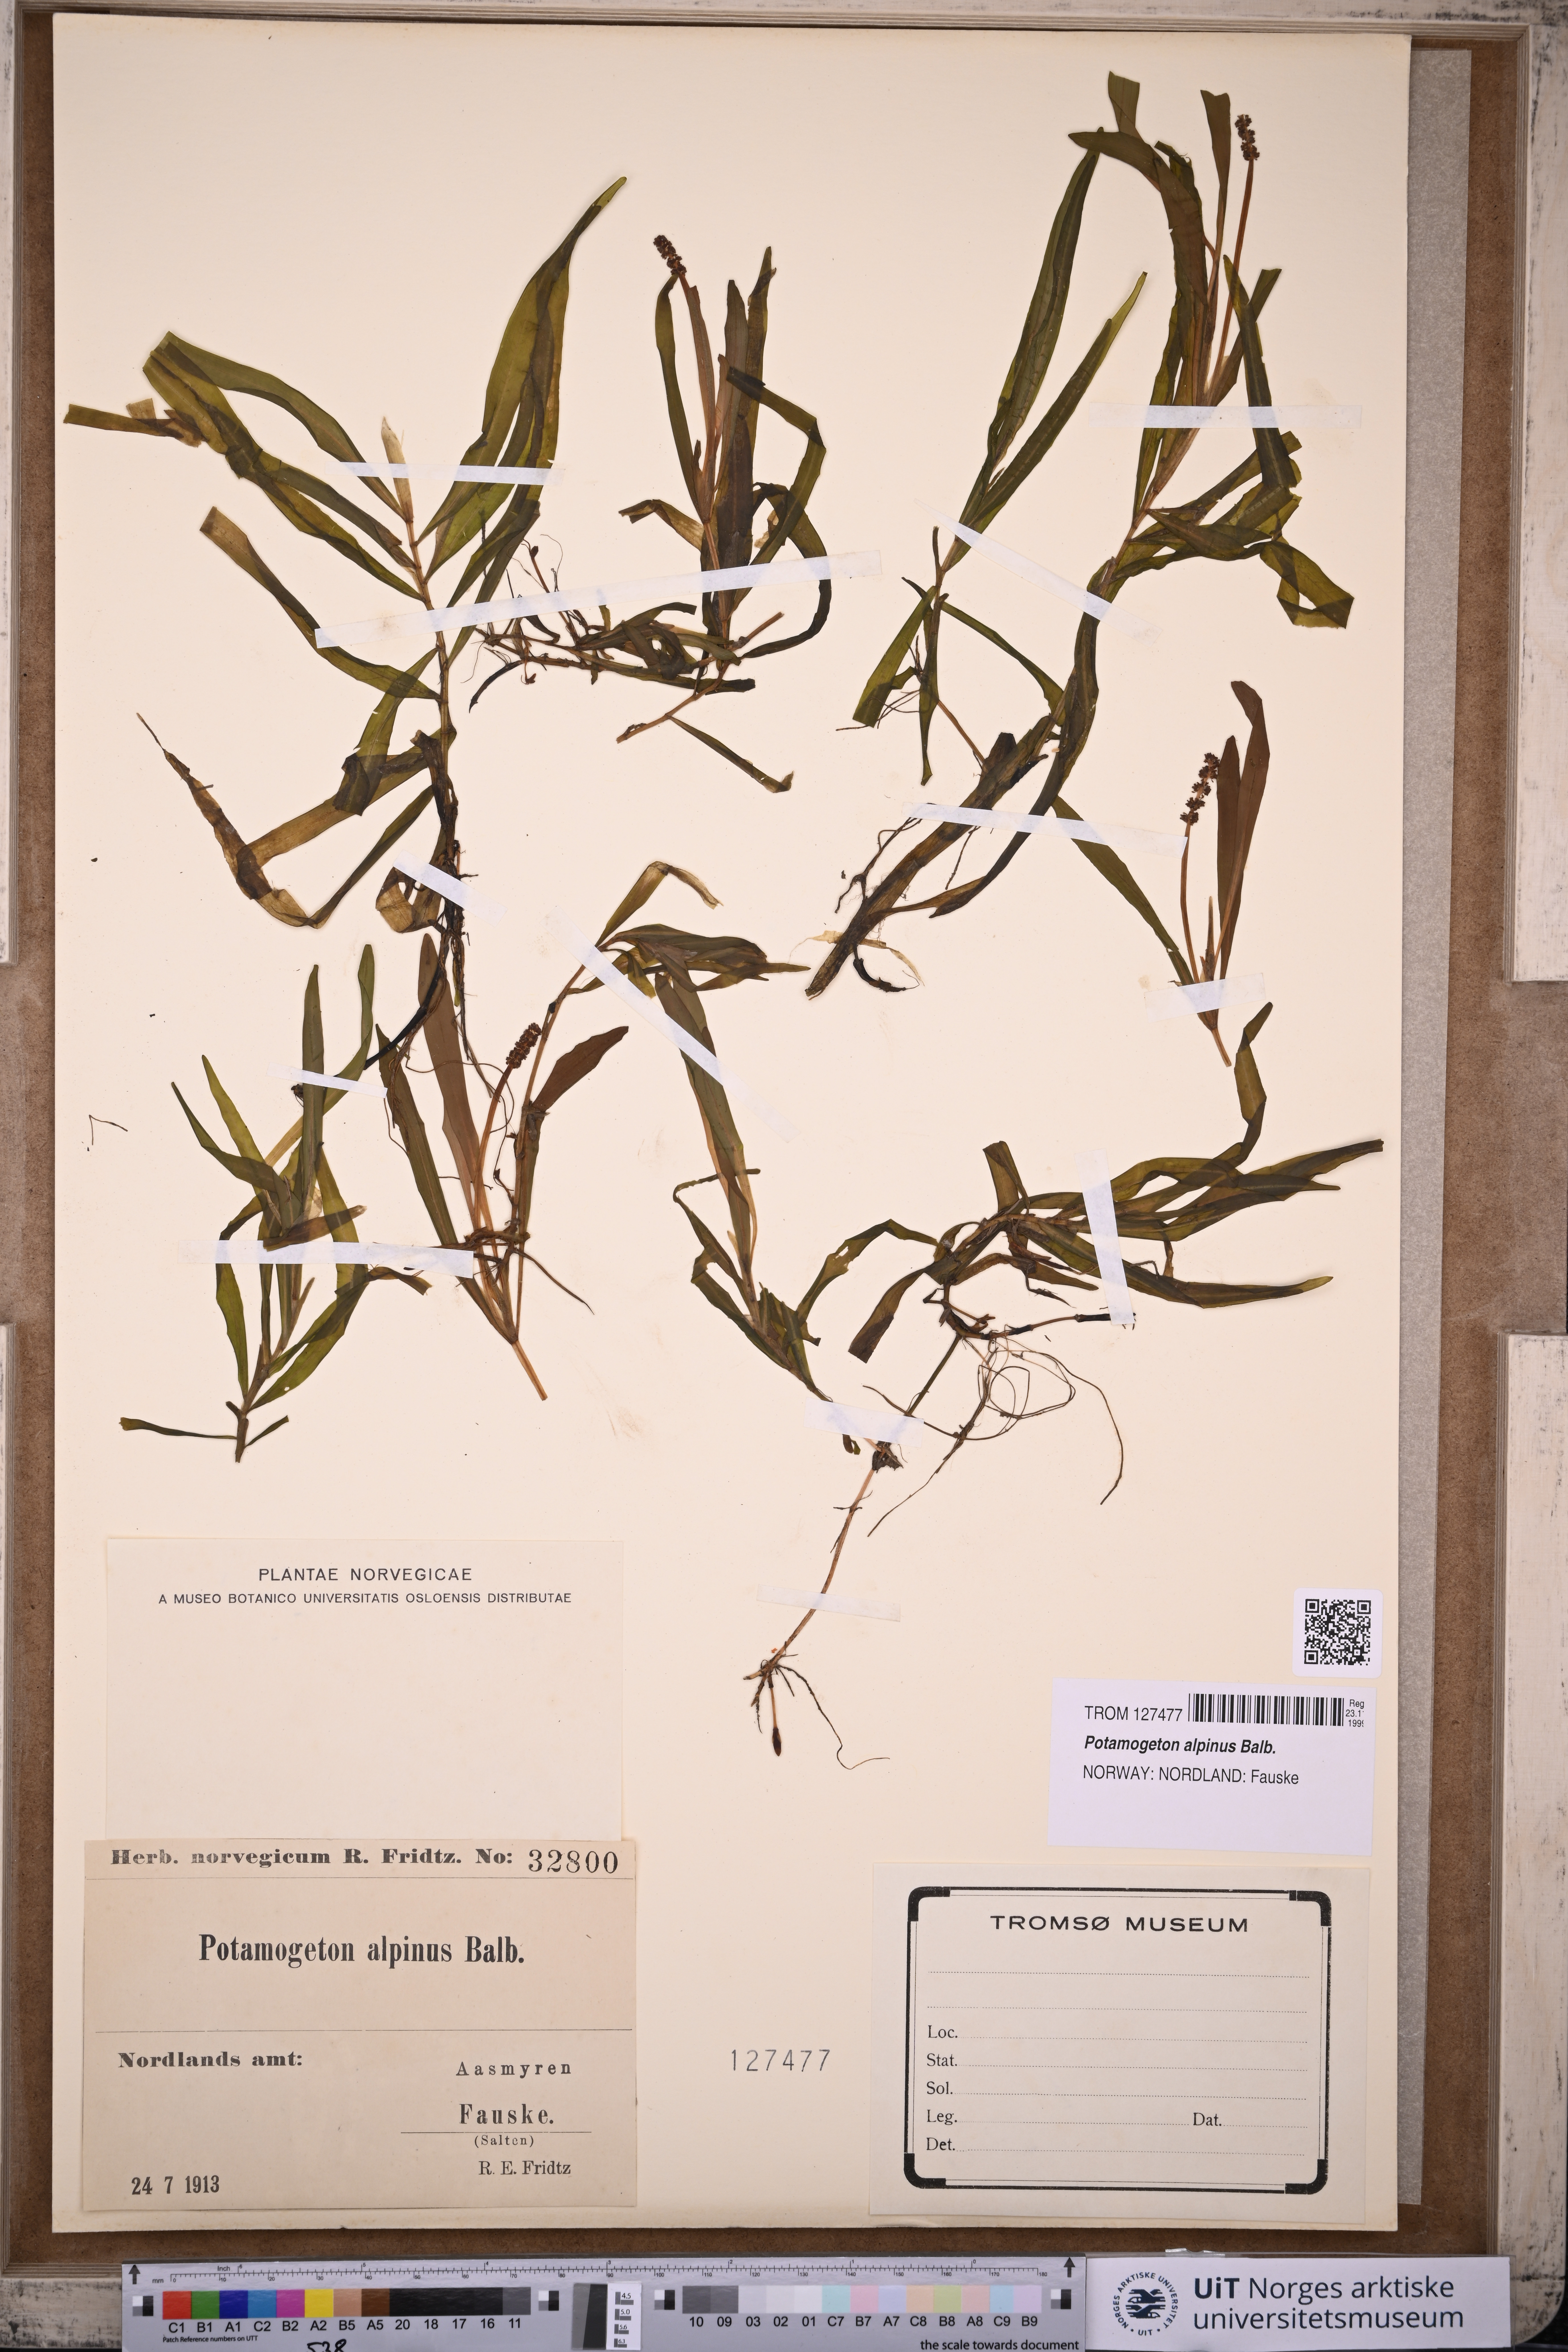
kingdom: Plantae
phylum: Tracheophyta
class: Liliopsida
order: Alismatales
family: Potamogetonaceae
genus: Potamogeton
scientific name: Potamogeton alpinus
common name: Red pondweed
